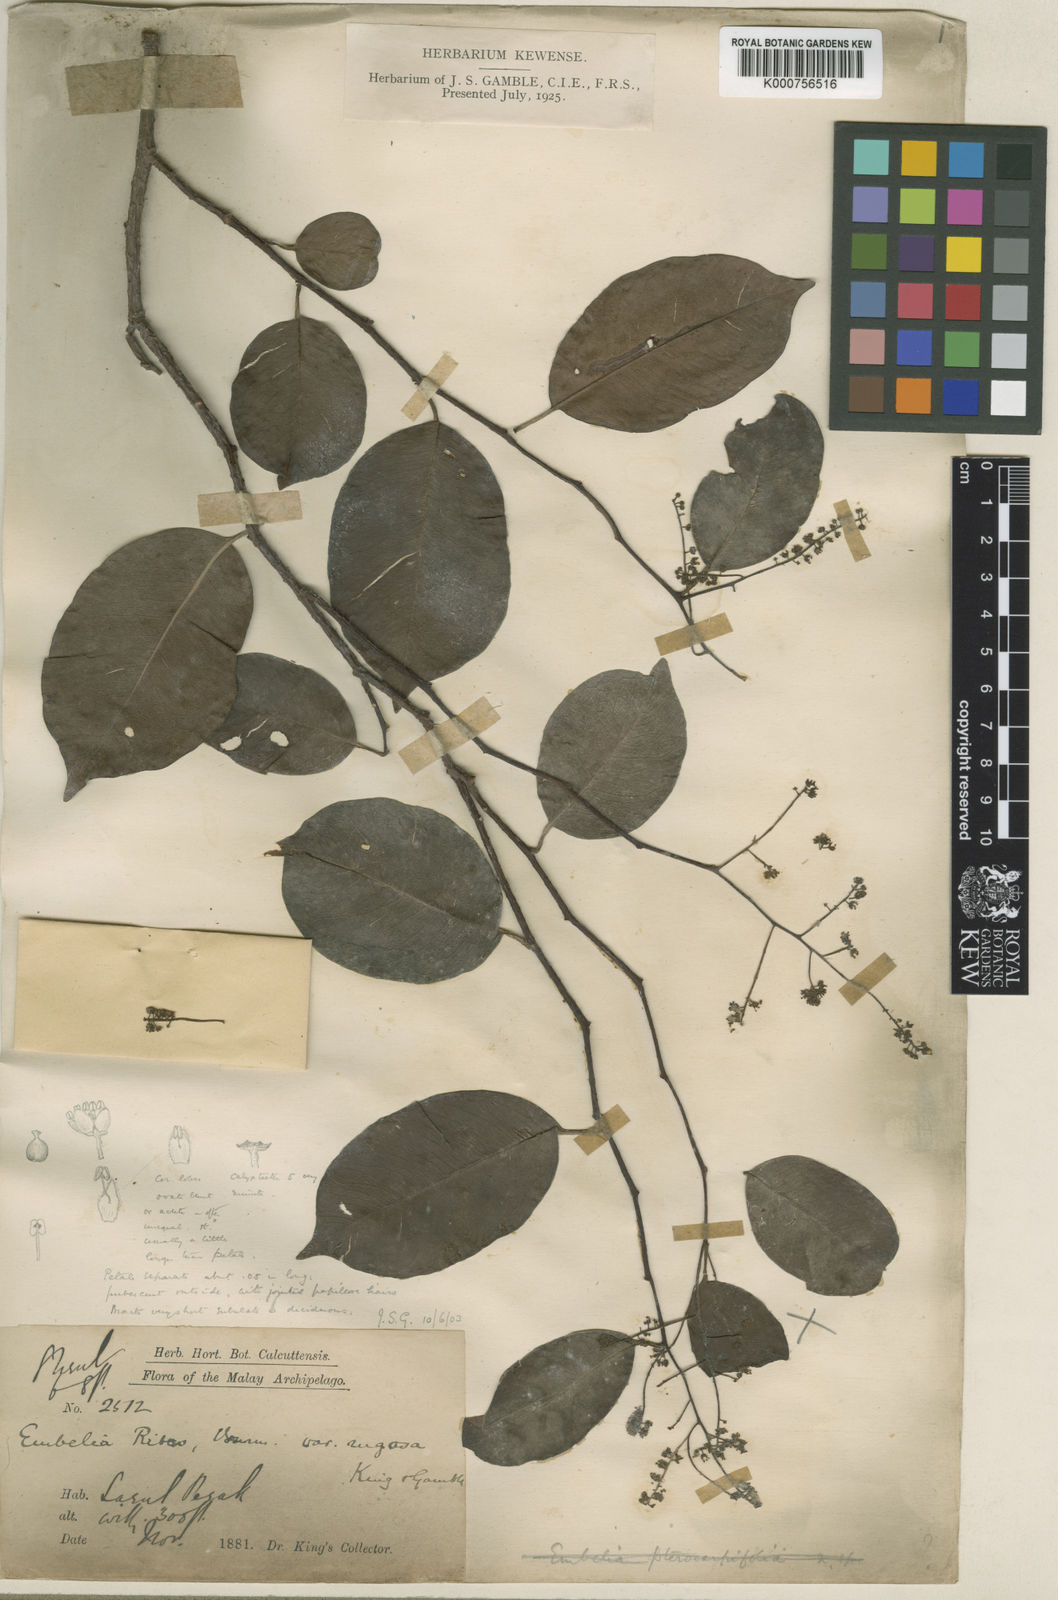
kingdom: Plantae
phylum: Tracheophyta
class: Magnoliopsida
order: Ericales
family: Primulaceae
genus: Embelia
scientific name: Embelia rugosa
